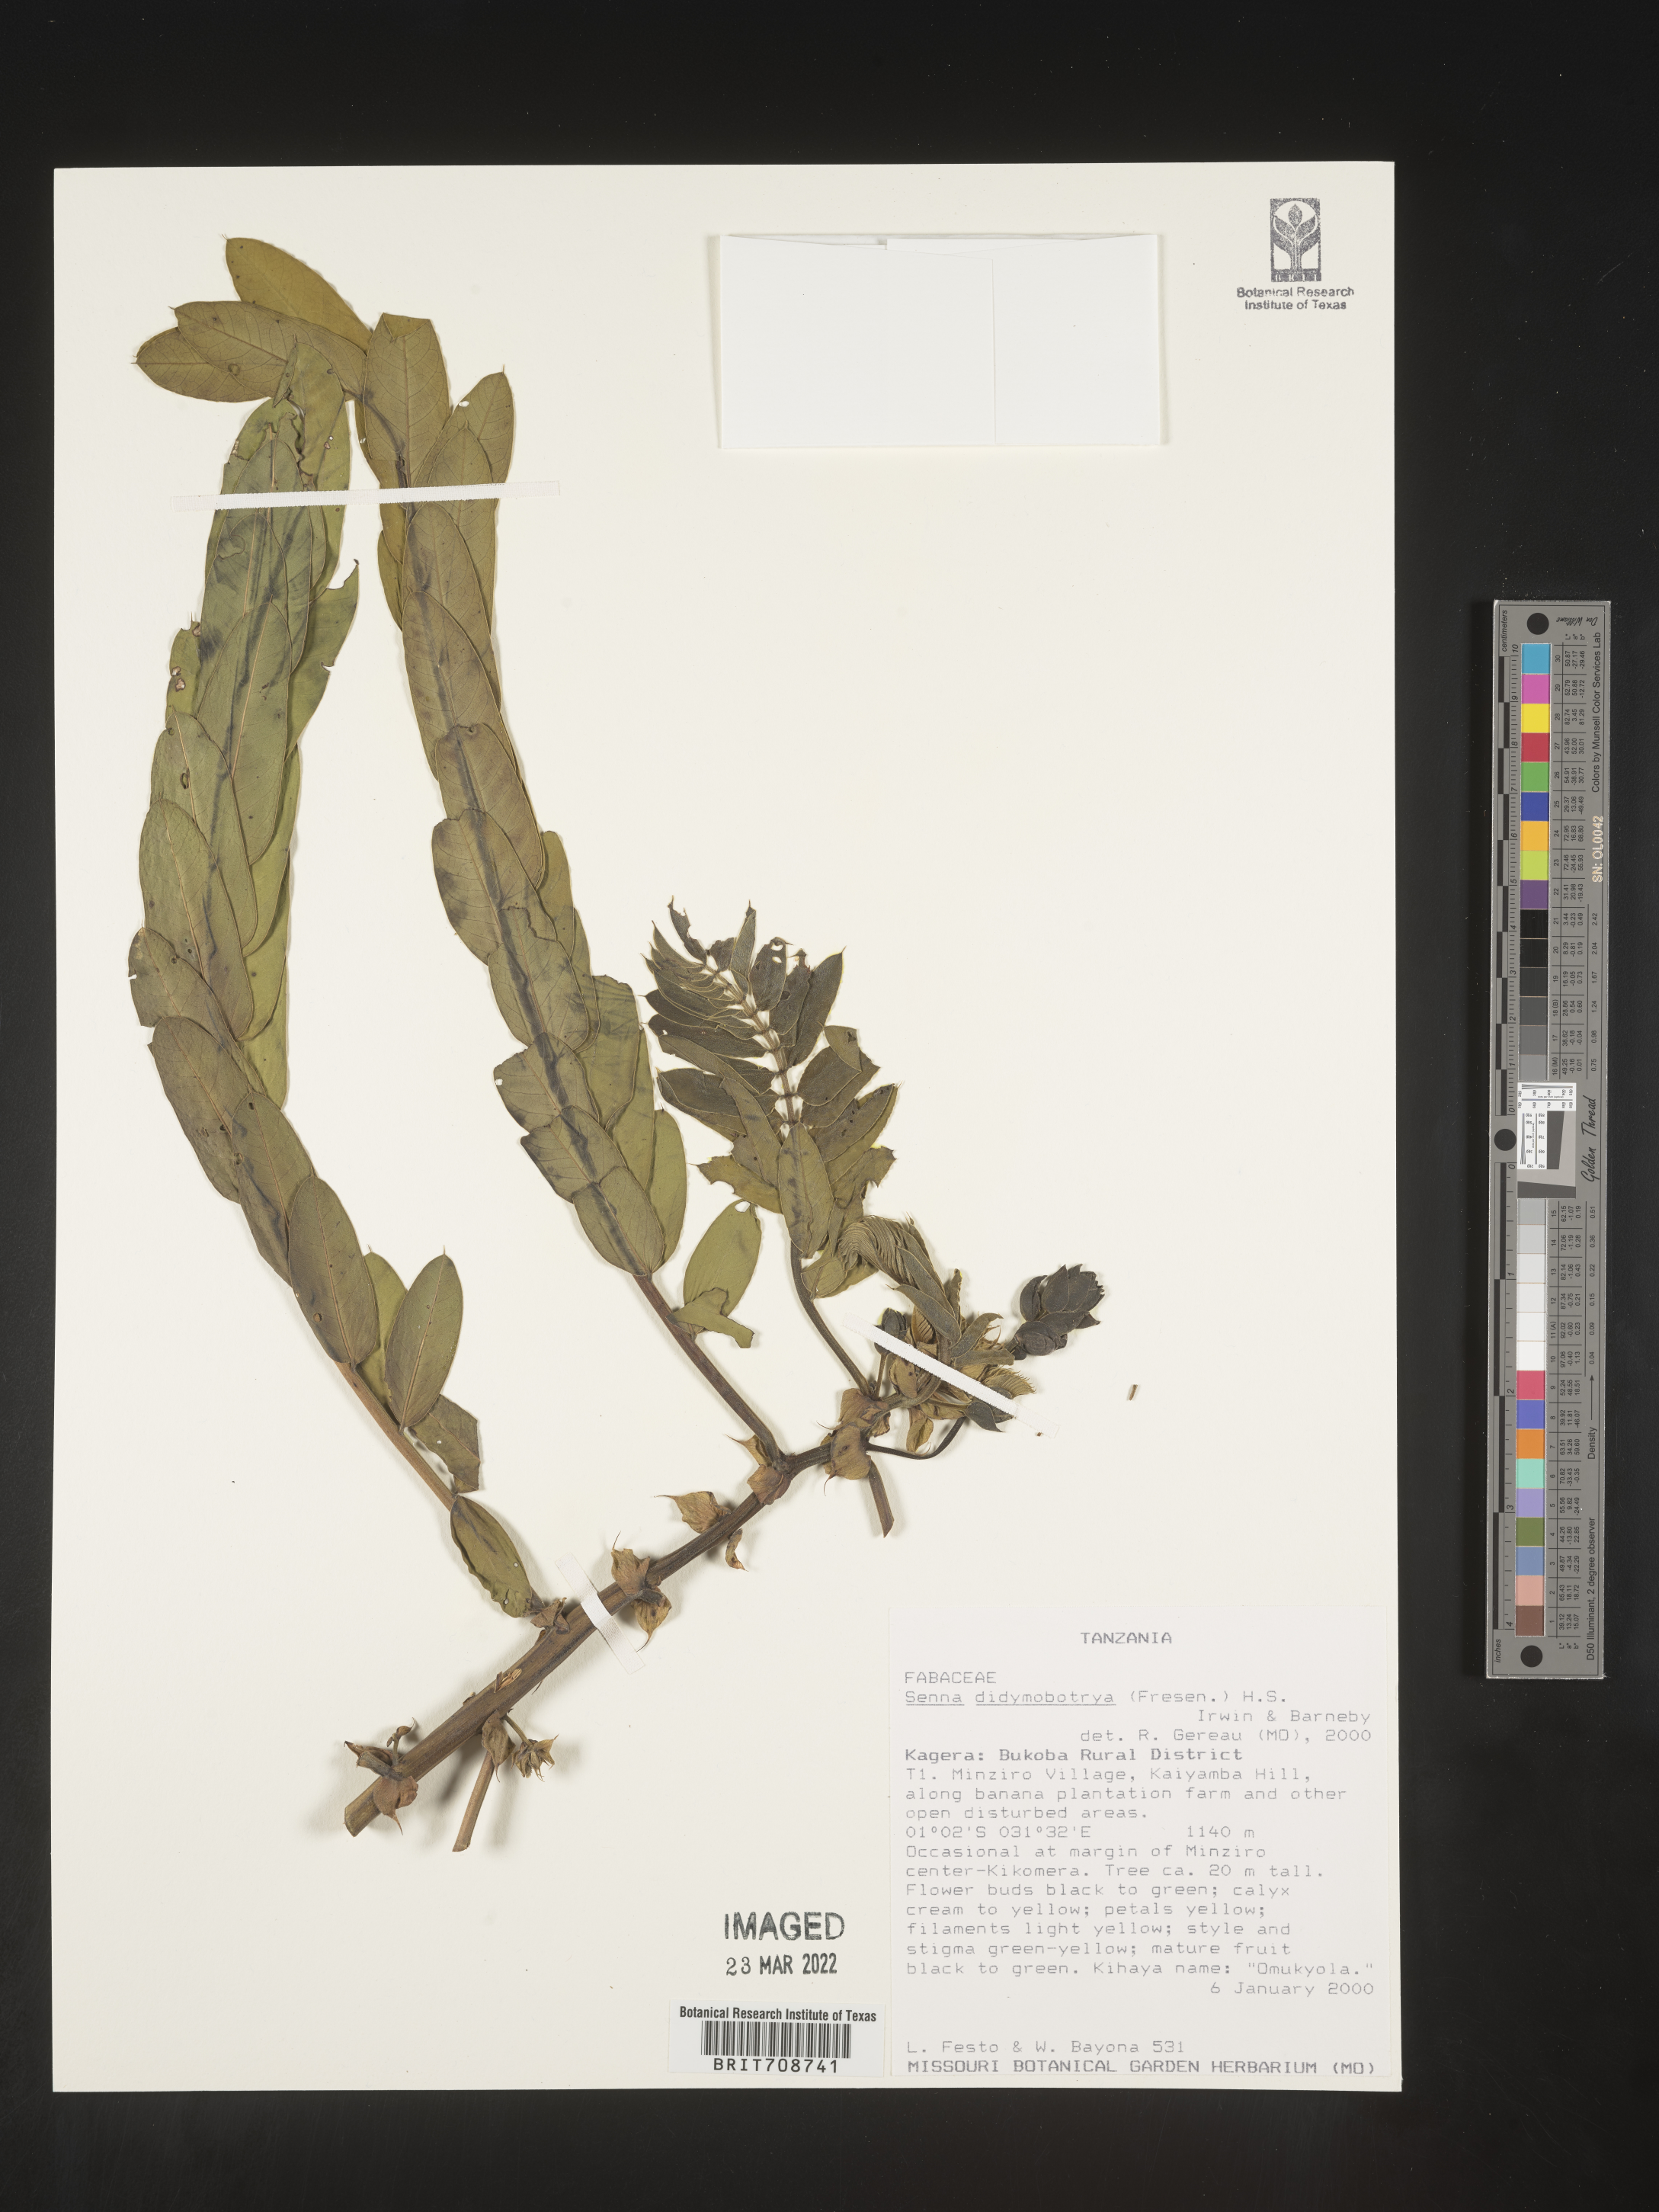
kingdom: Plantae
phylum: Tracheophyta
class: Magnoliopsida
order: Fabales
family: Fabaceae
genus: Senna
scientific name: Senna
